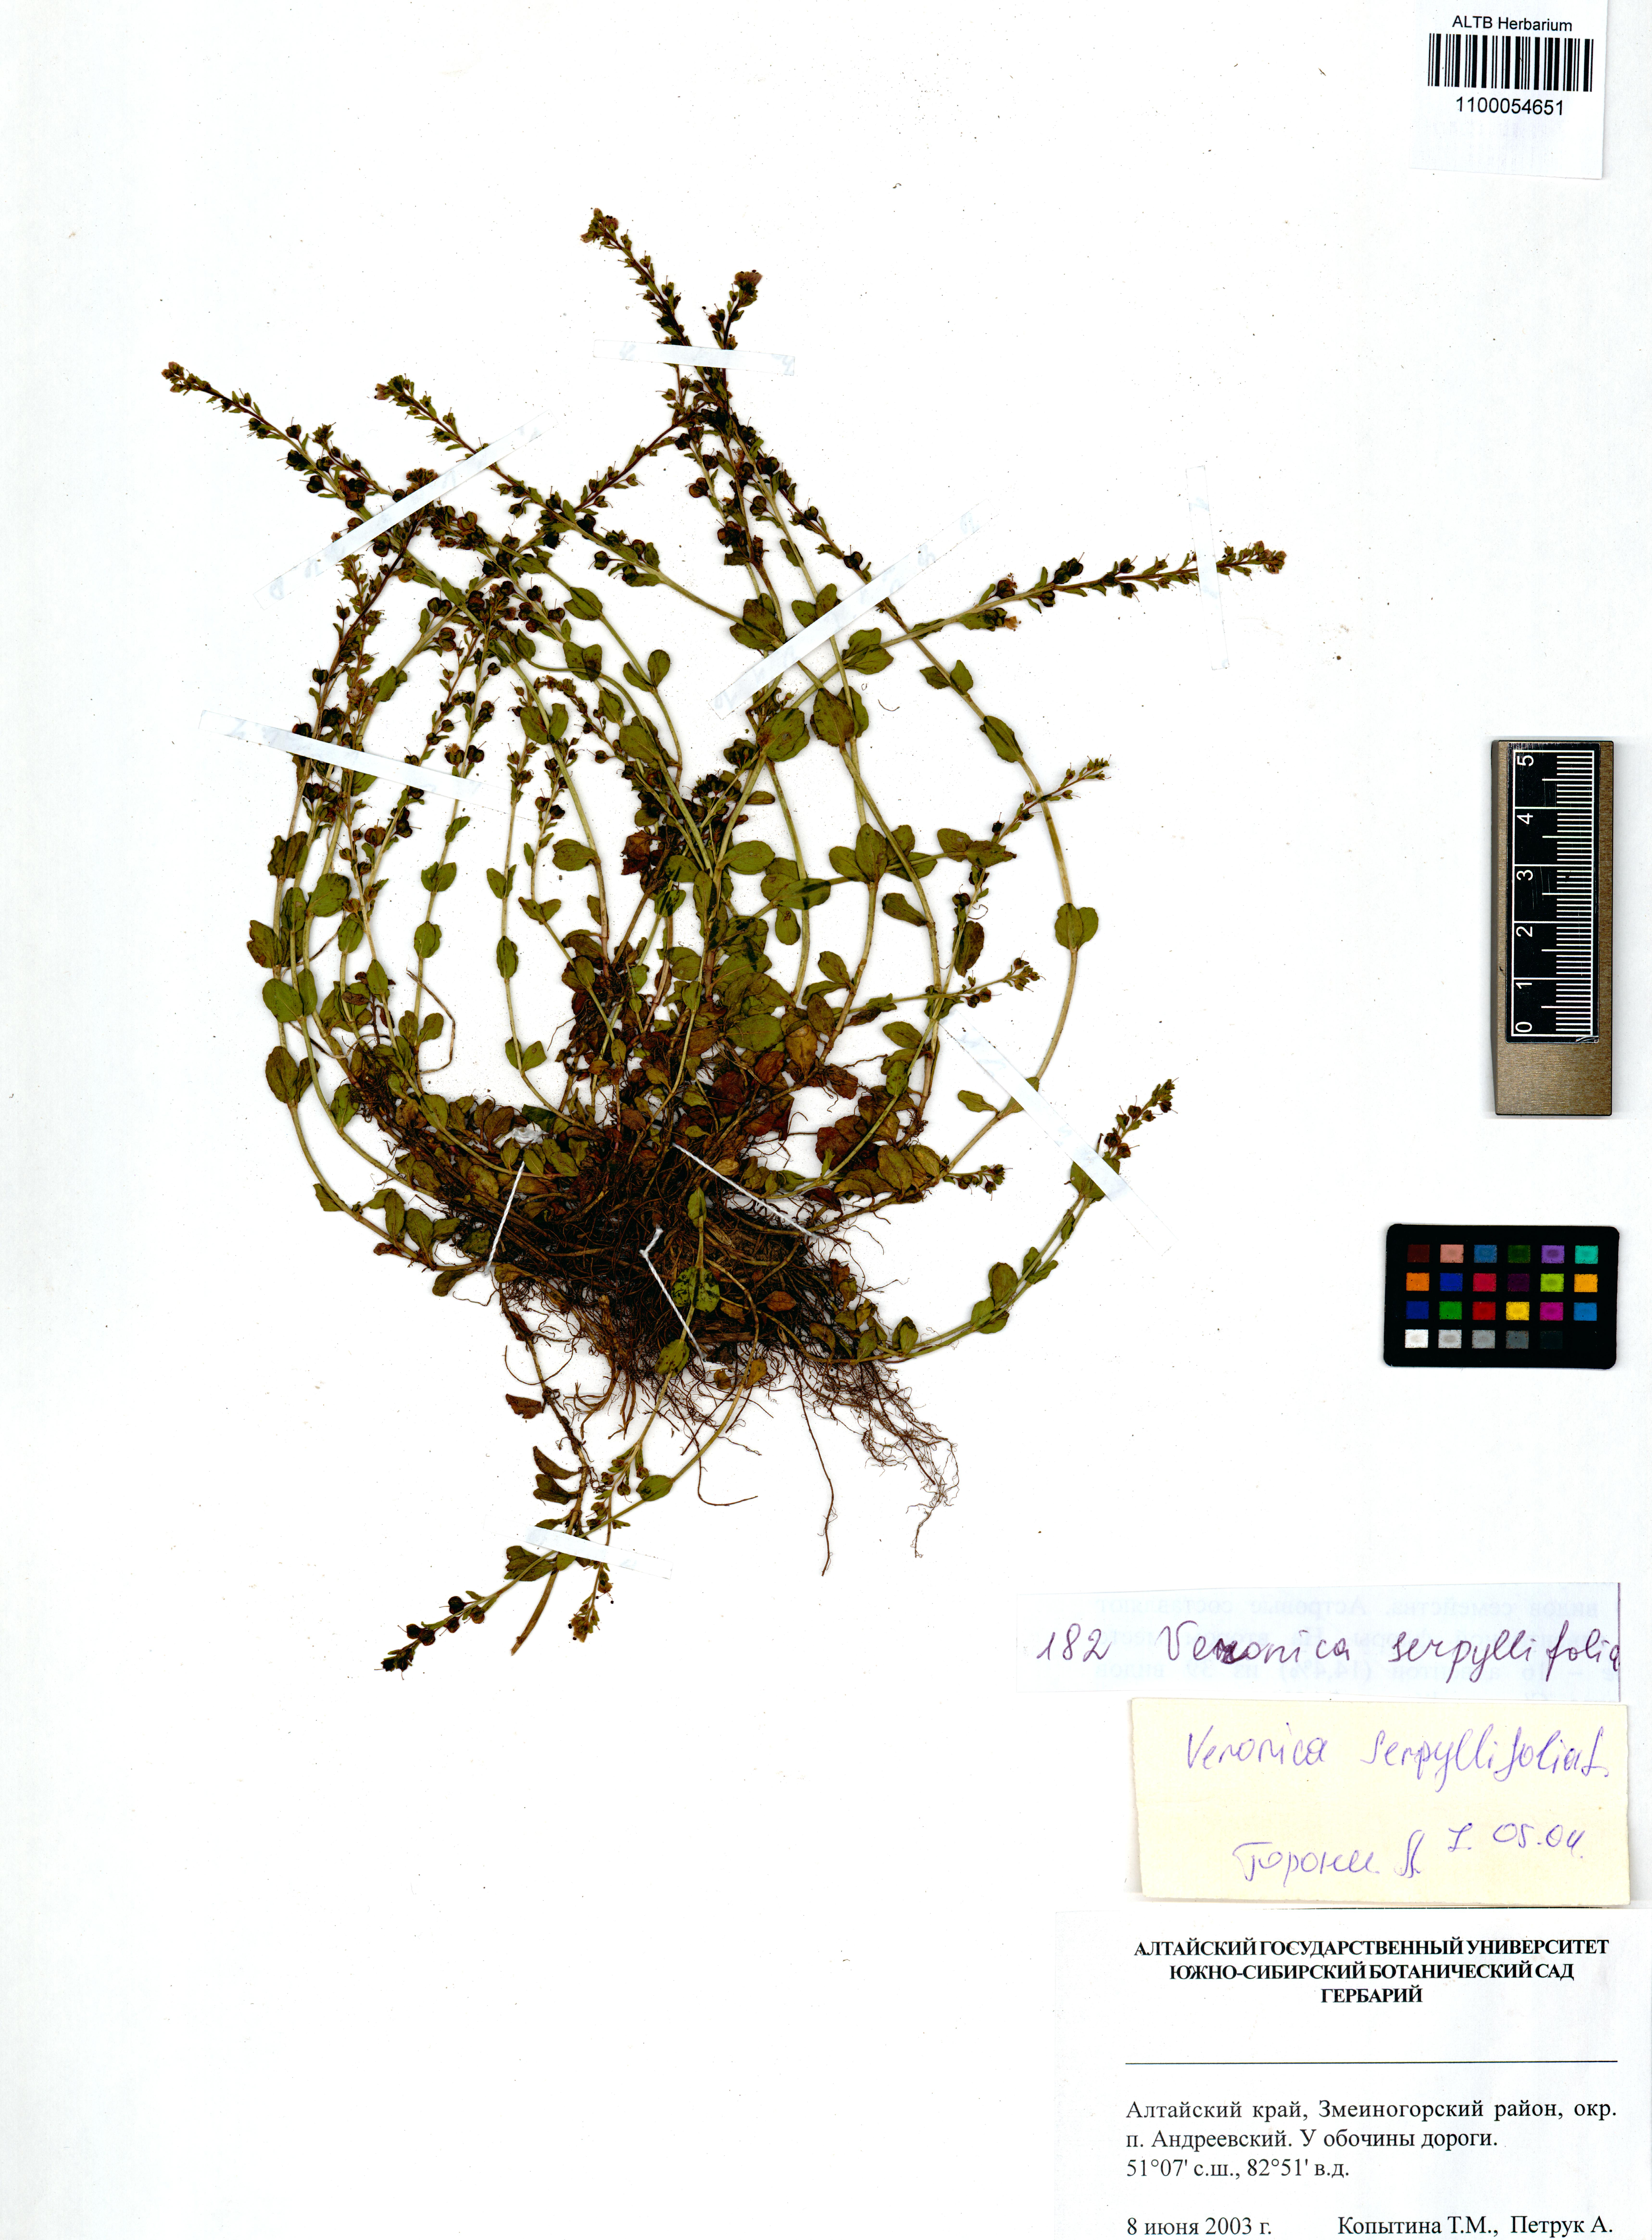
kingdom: Plantae
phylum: Tracheophyta
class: Magnoliopsida
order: Lamiales
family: Plantaginaceae
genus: Veronica
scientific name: Veronica serpyllifolia
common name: Thyme-leaved speedwell
